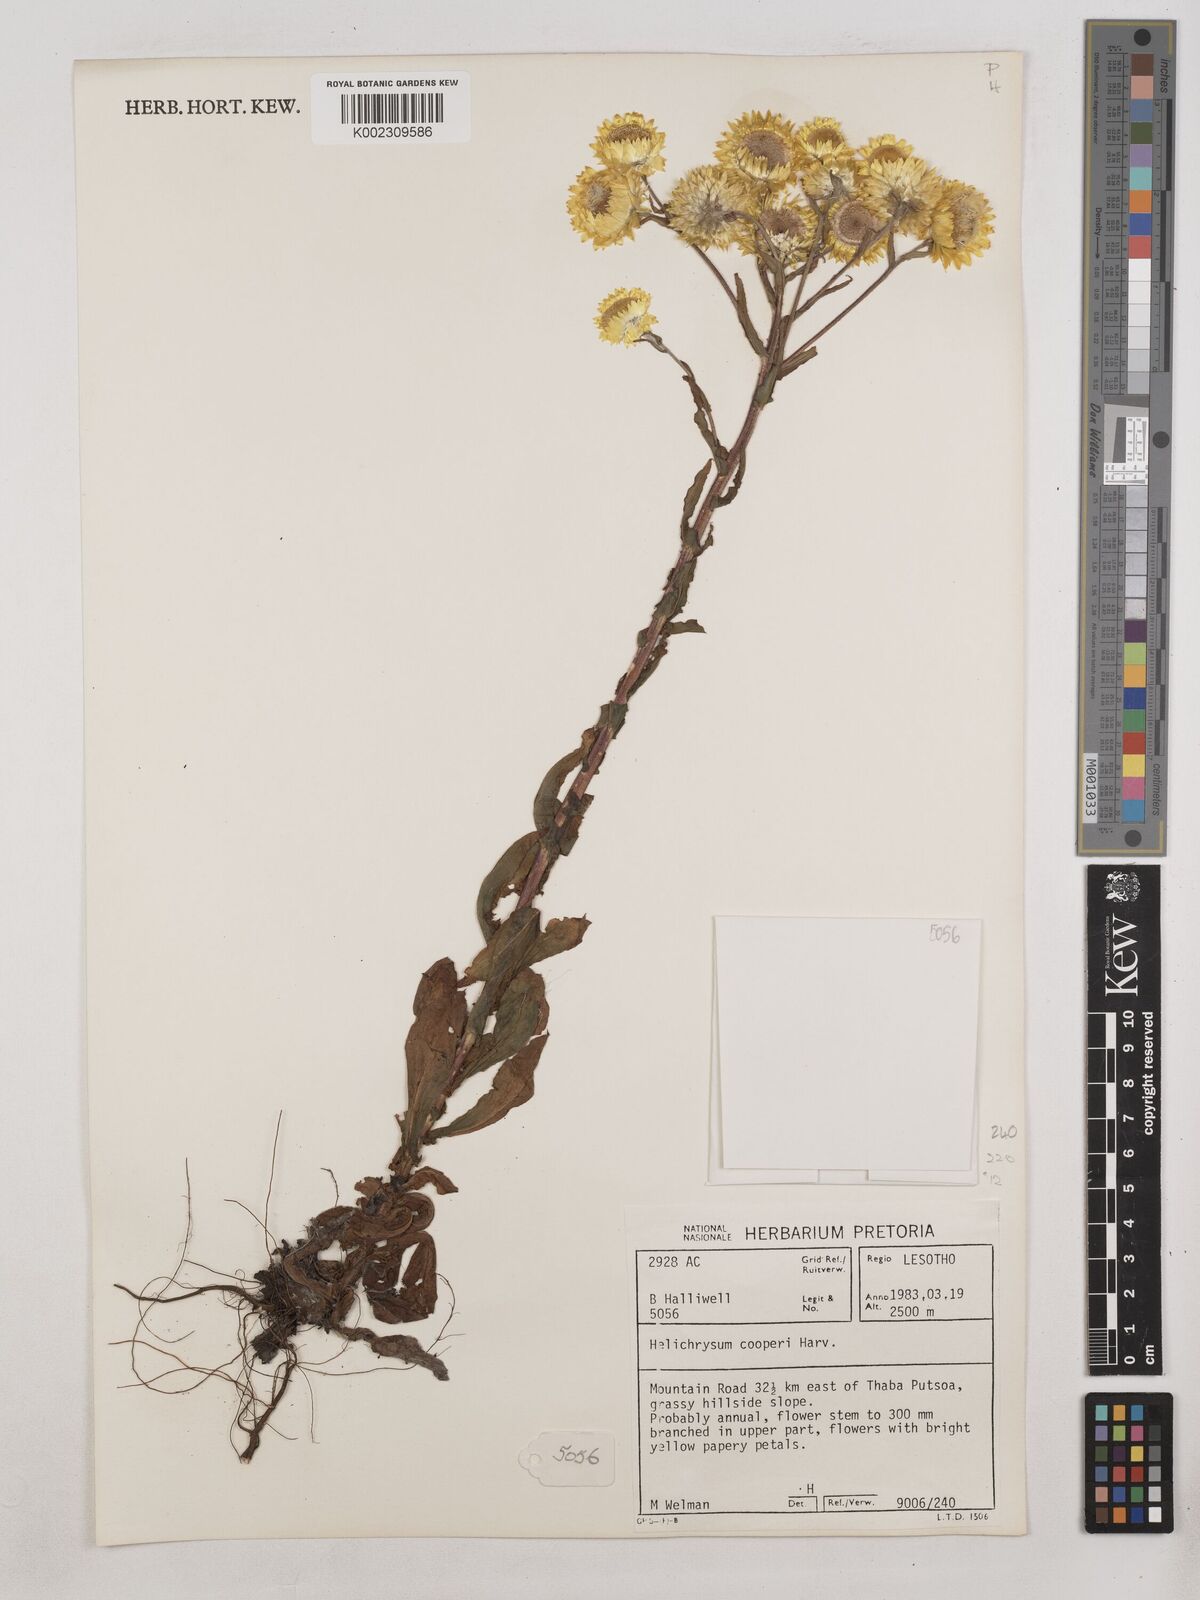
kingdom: Plantae
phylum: Tracheophyta
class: Magnoliopsida
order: Asterales
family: Asteraceae
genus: Helichrysum
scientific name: Helichrysum cooperi
